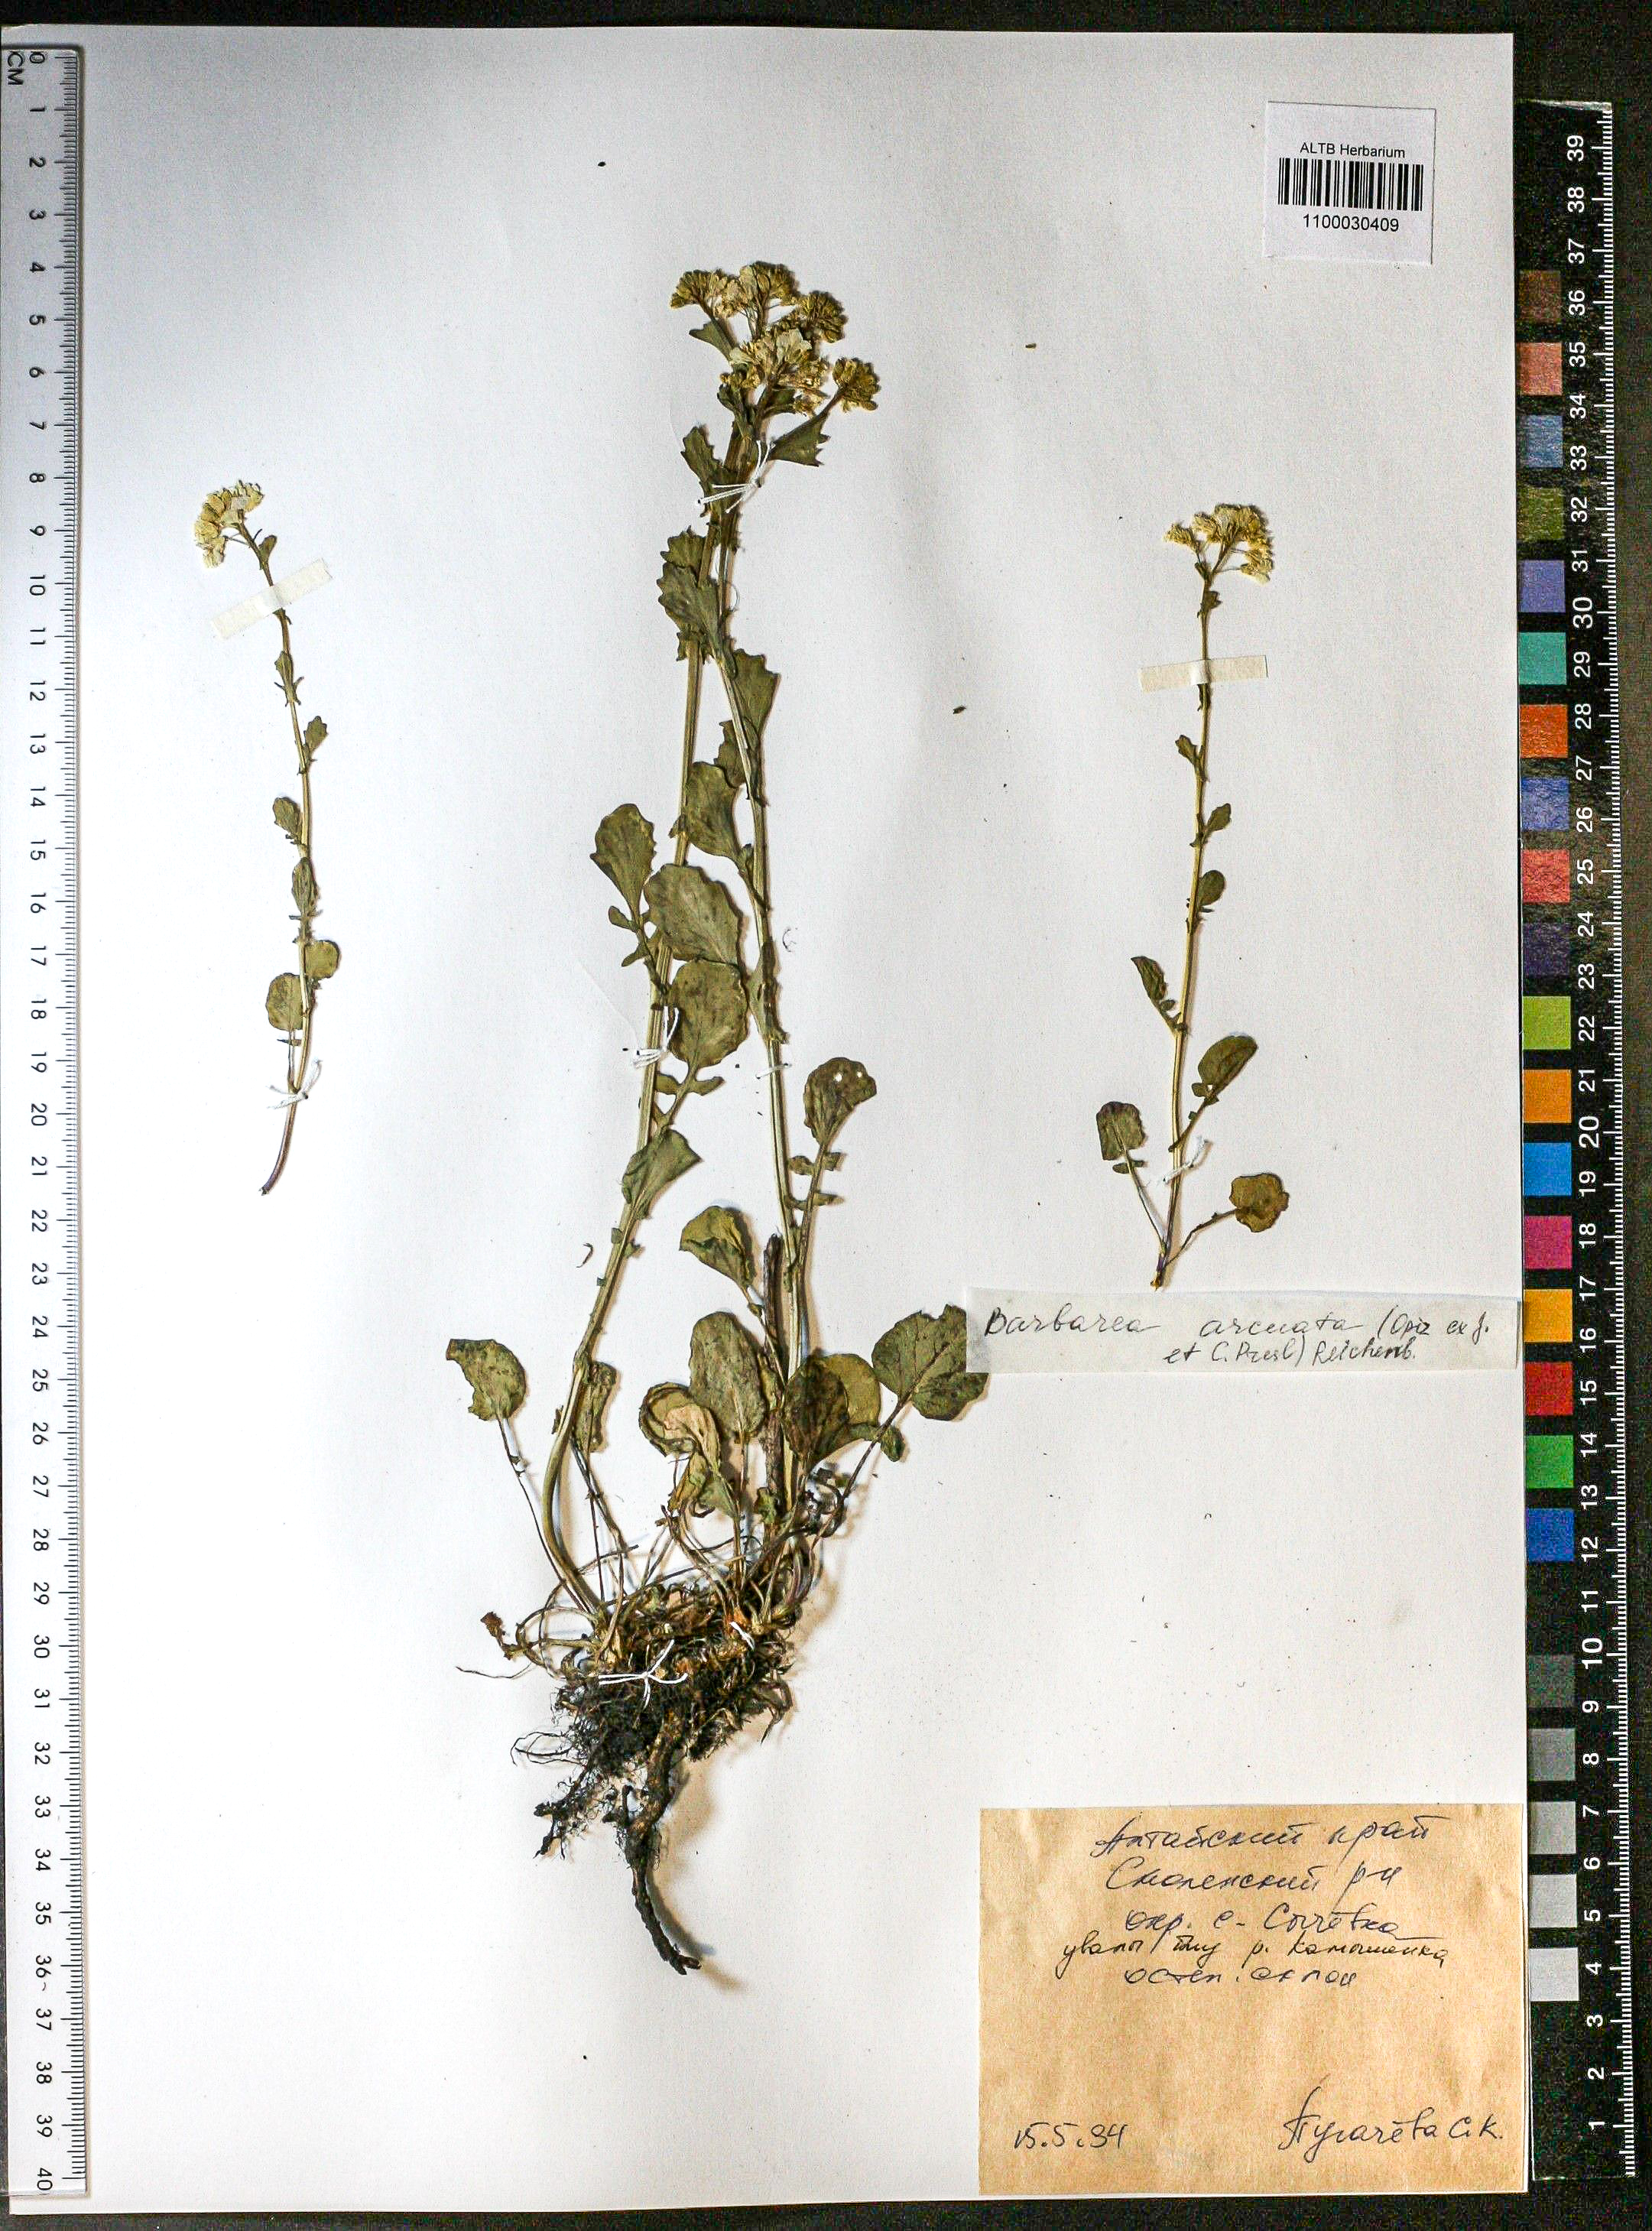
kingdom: Plantae
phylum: Tracheophyta
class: Magnoliopsida
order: Brassicales
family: Brassicaceae
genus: Barbarea
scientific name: Barbarea vulgaris
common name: Cressy-greens
